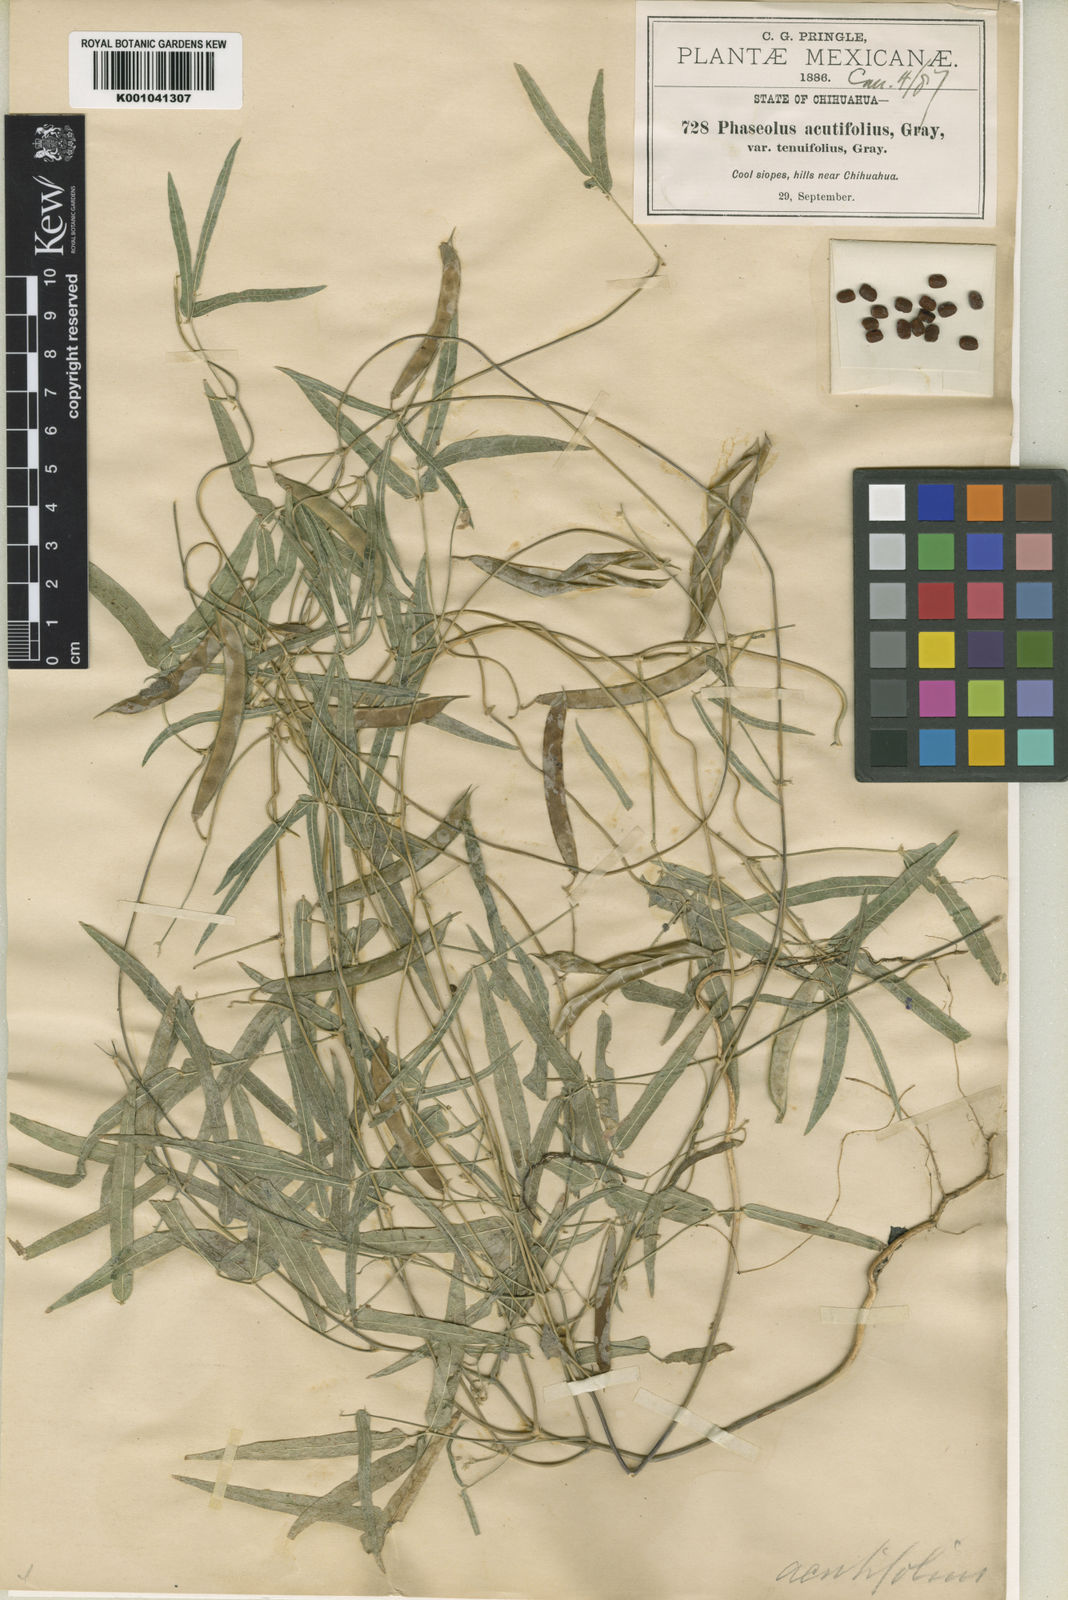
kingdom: Plantae
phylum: Tracheophyta
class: Magnoliopsida
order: Fabales
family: Fabaceae
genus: Phaseolus
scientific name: Phaseolus acutifolius
